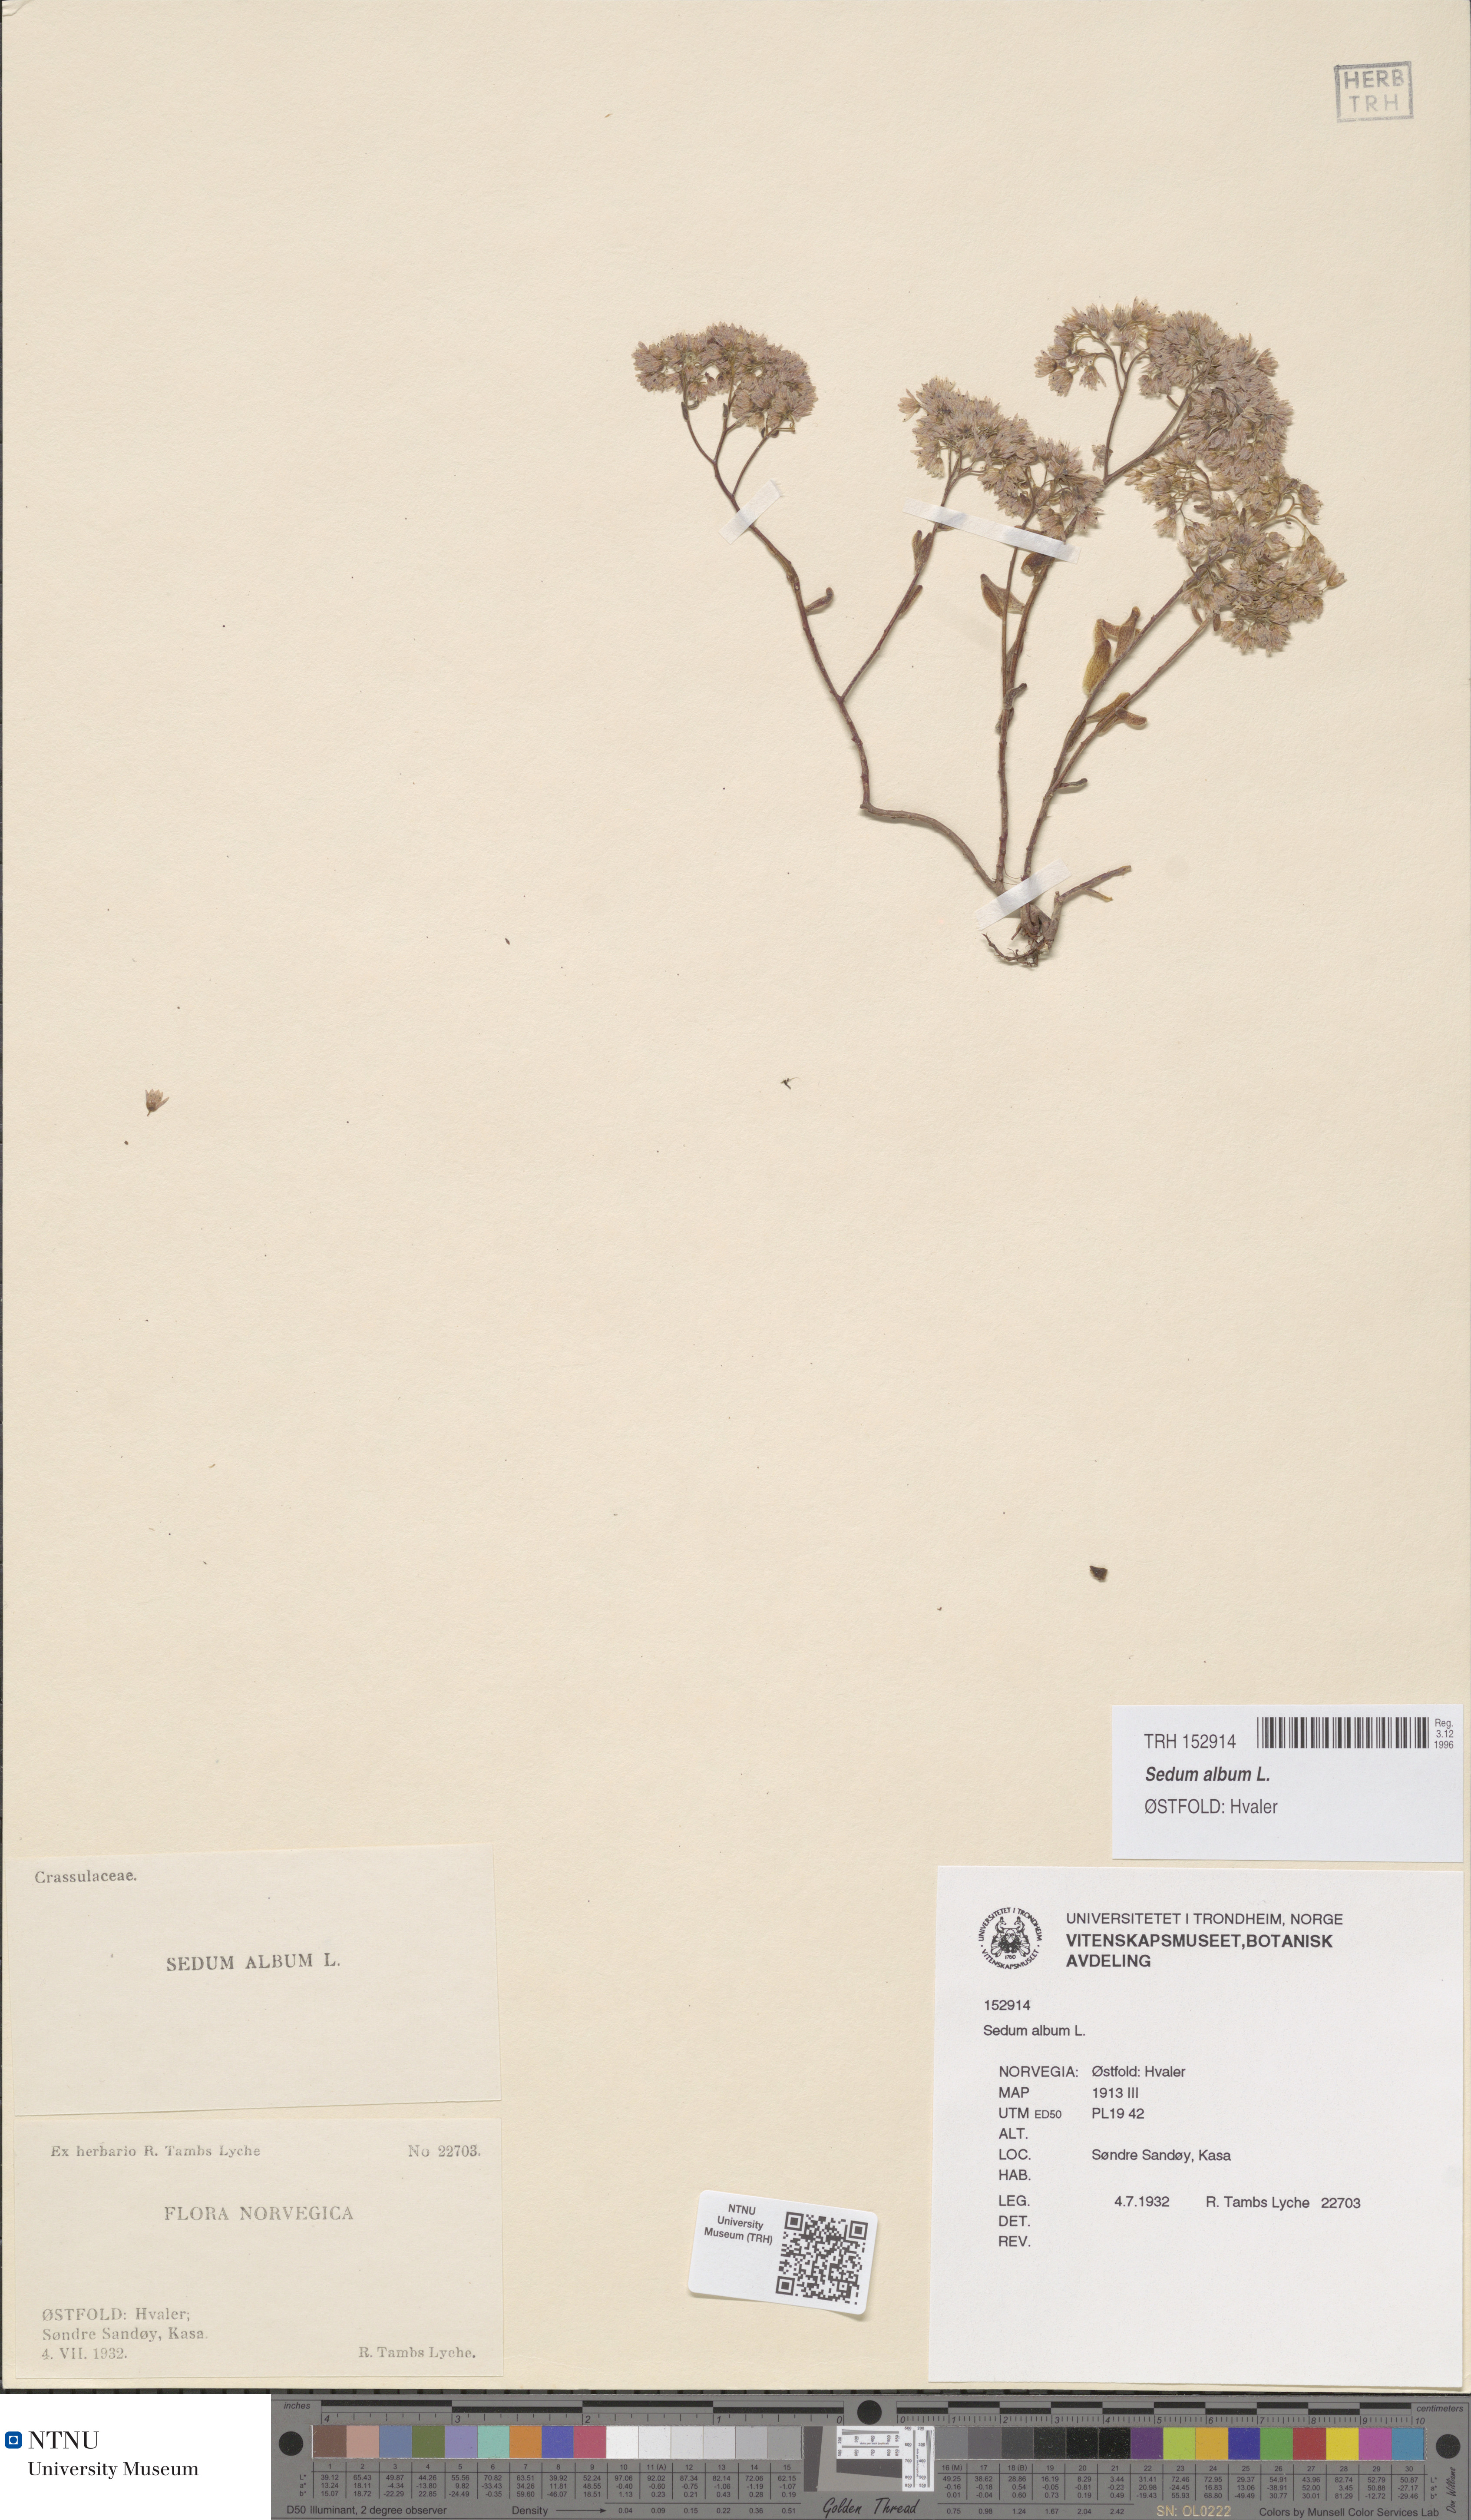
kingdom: Plantae
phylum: Tracheophyta
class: Magnoliopsida
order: Saxifragales
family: Crassulaceae
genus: Sedum
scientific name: Sedum album
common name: White stonecrop
